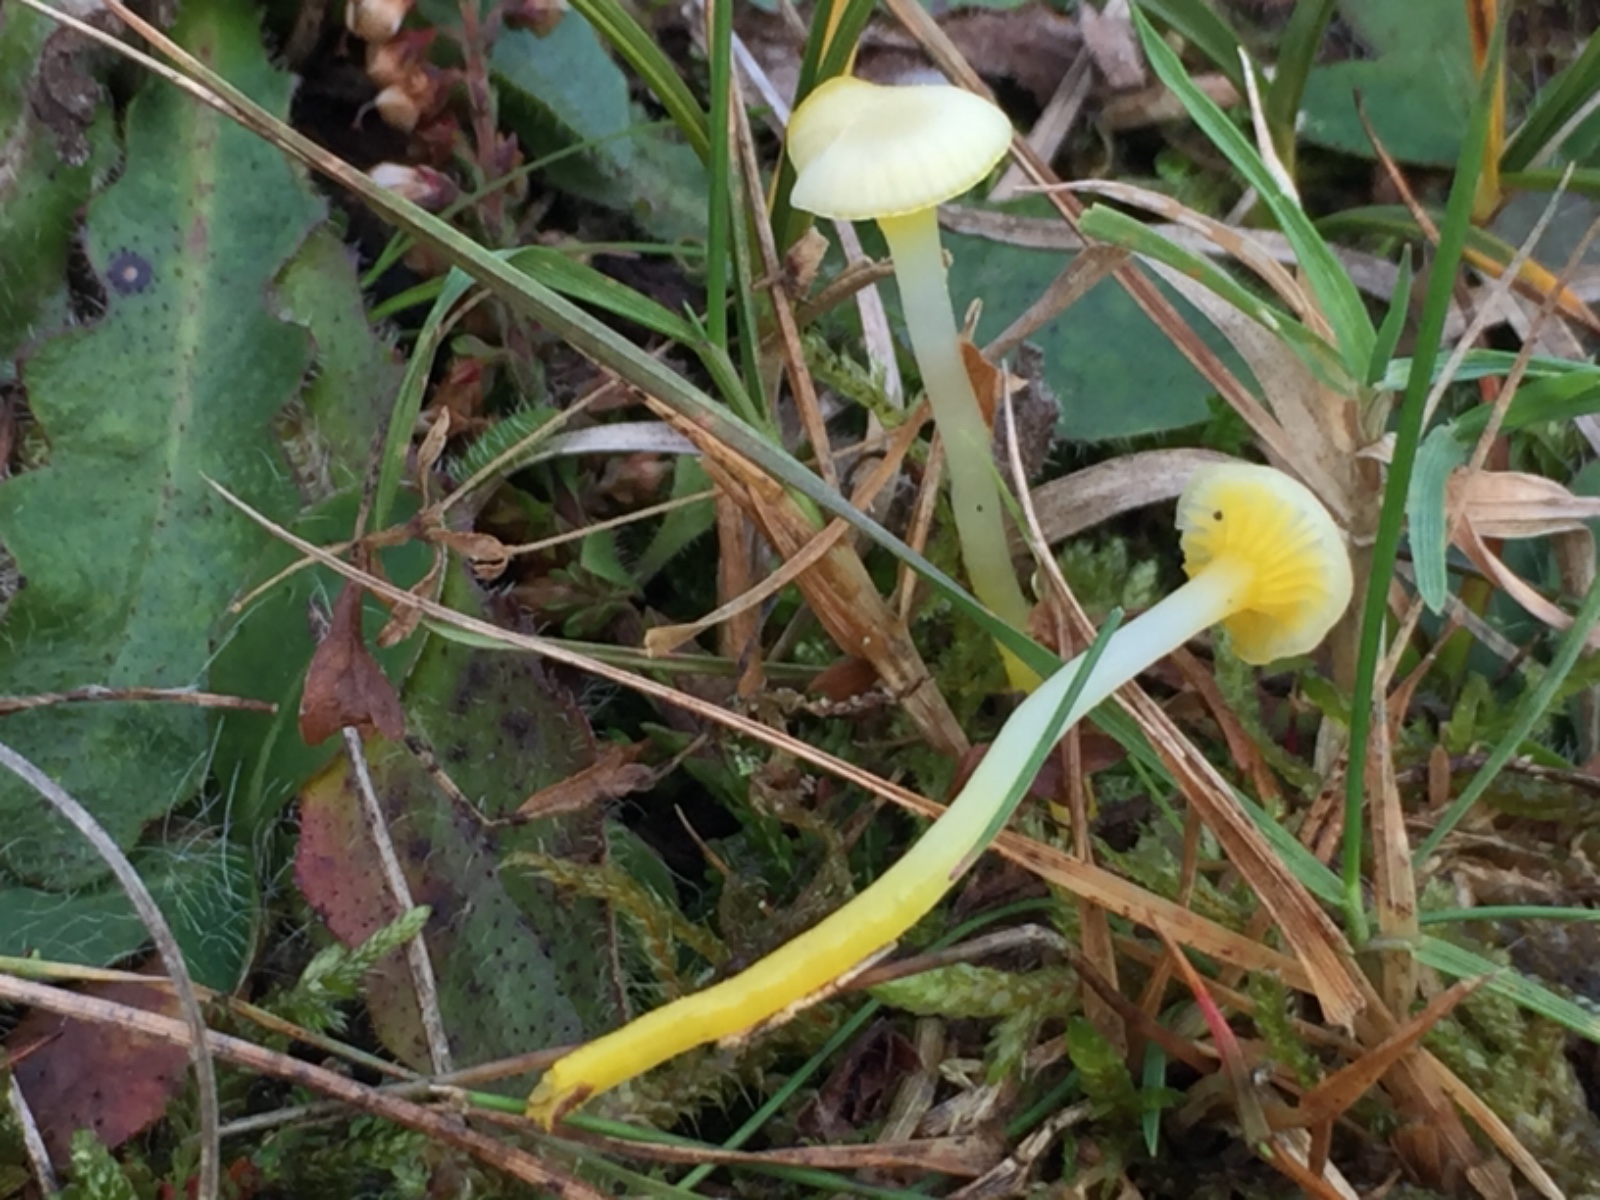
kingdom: Fungi
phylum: Basidiomycota
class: Agaricomycetes
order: Agaricales
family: Hygrophoraceae
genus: Gloioxanthomyces
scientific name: Gloioxanthomyces vitellinus
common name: kromgul vokshat
